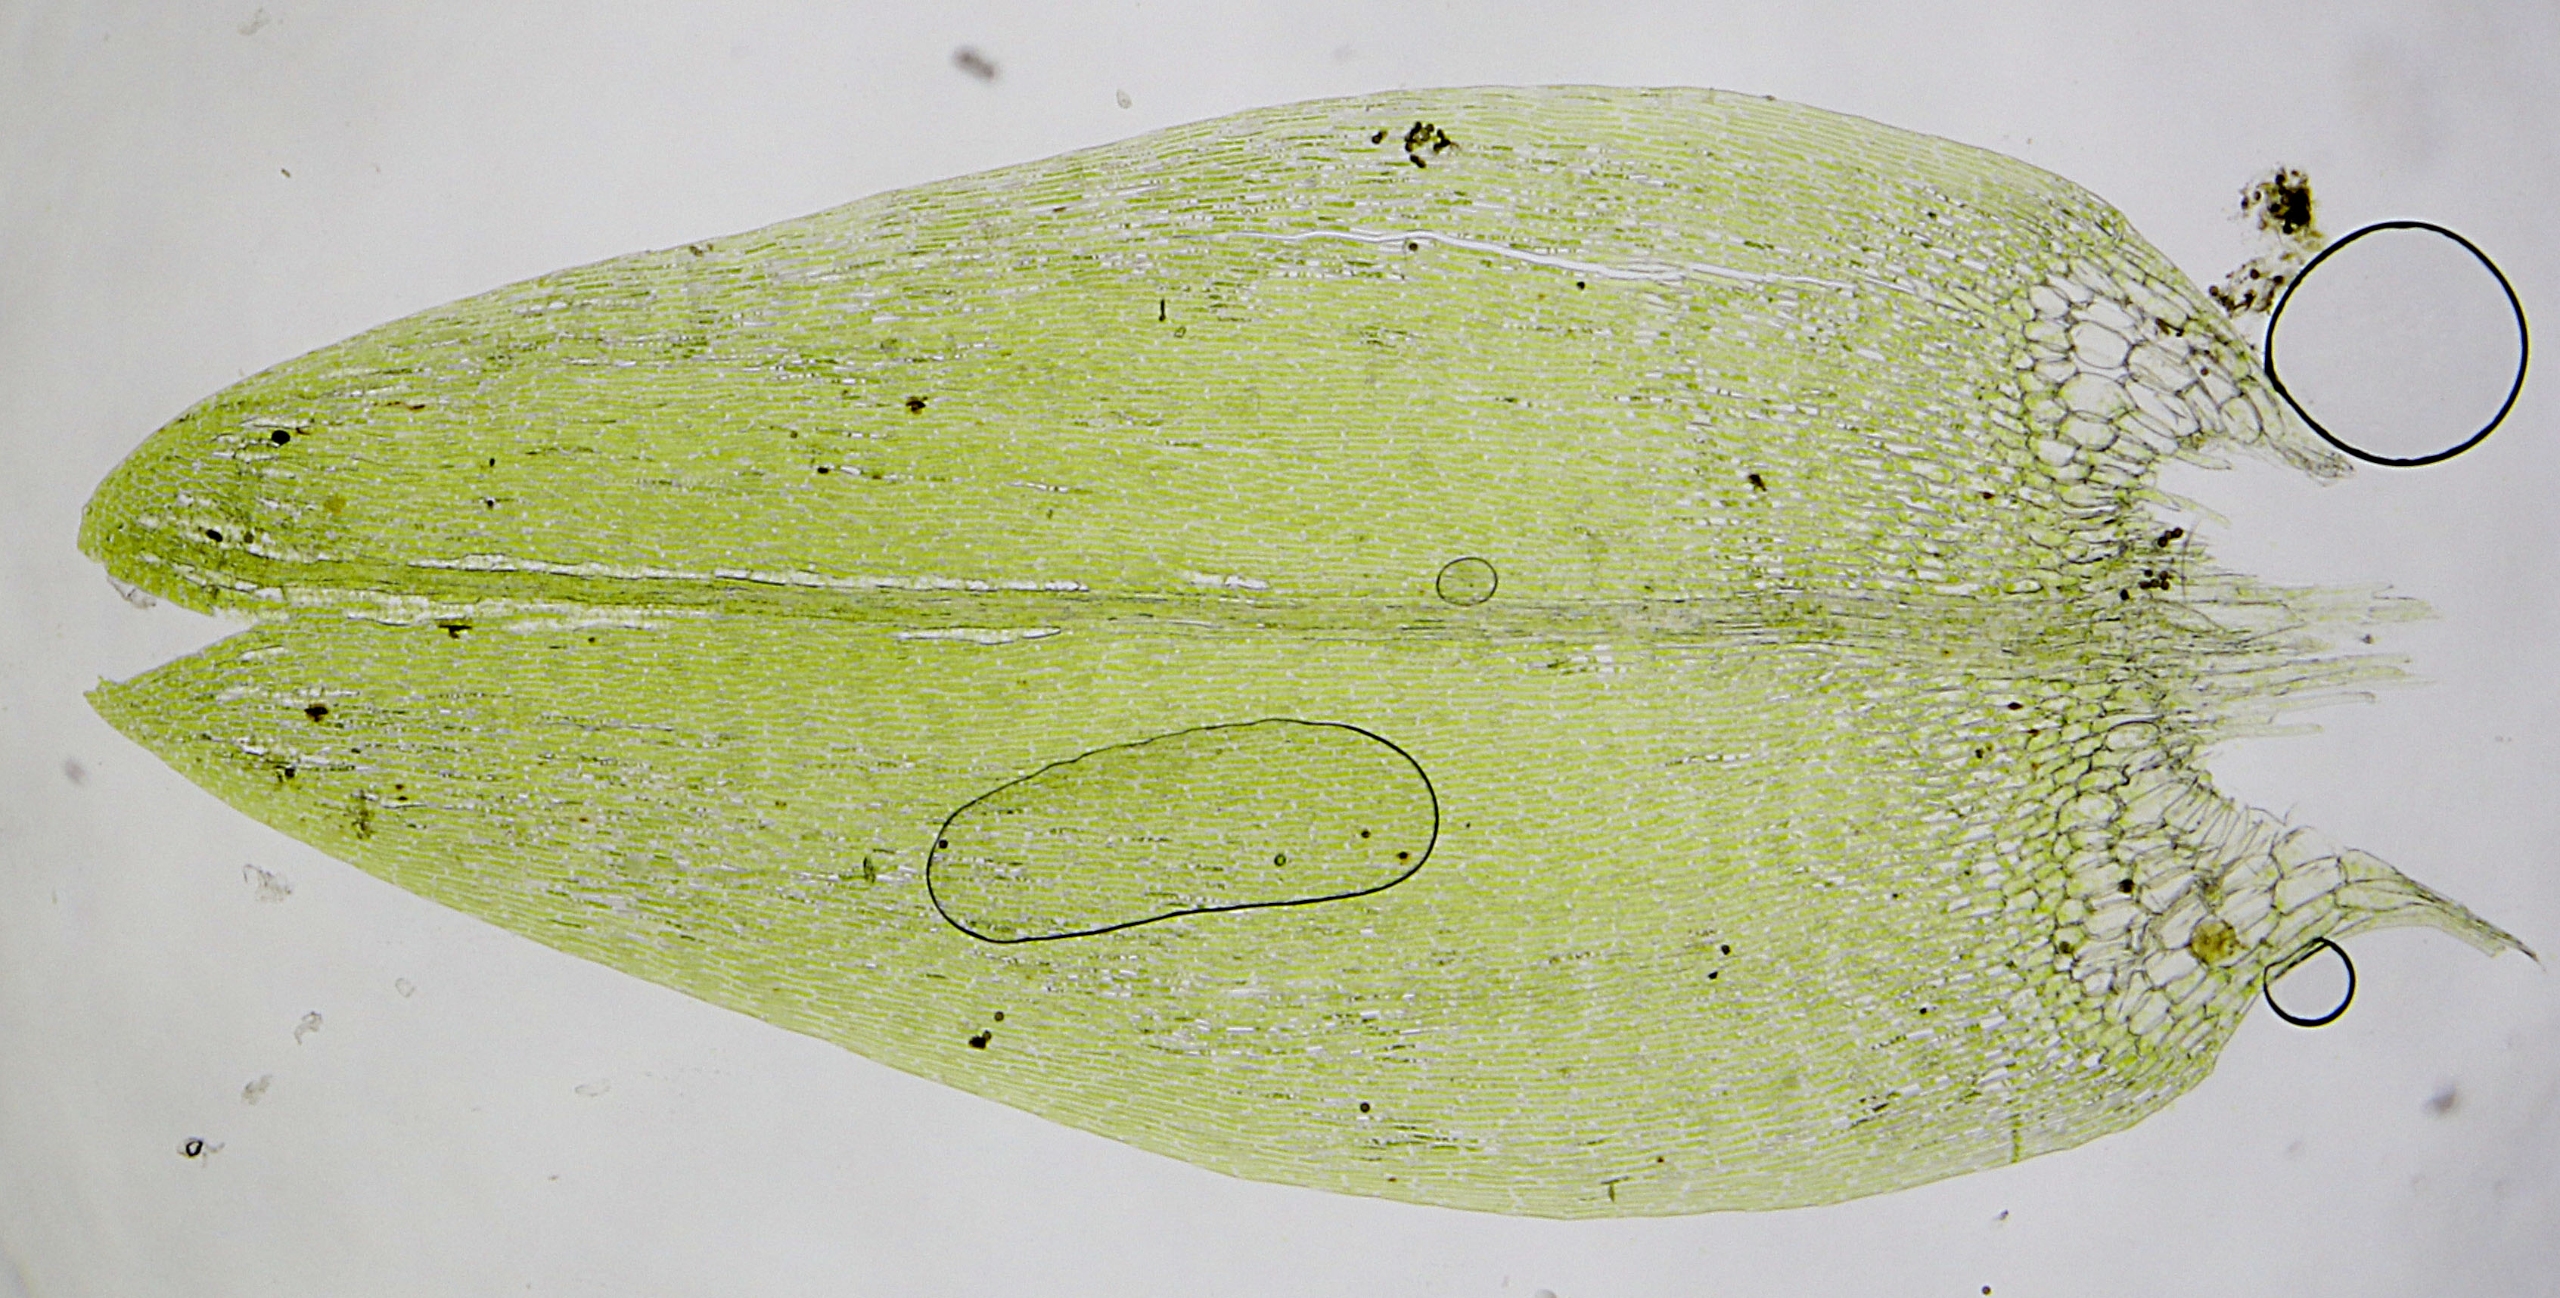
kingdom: Plantae
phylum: Bryophyta
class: Bryopsida
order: Hypnales
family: Calliergonaceae
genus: Calliergon
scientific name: Calliergon cordifolium
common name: Almindelig skebladsmos
